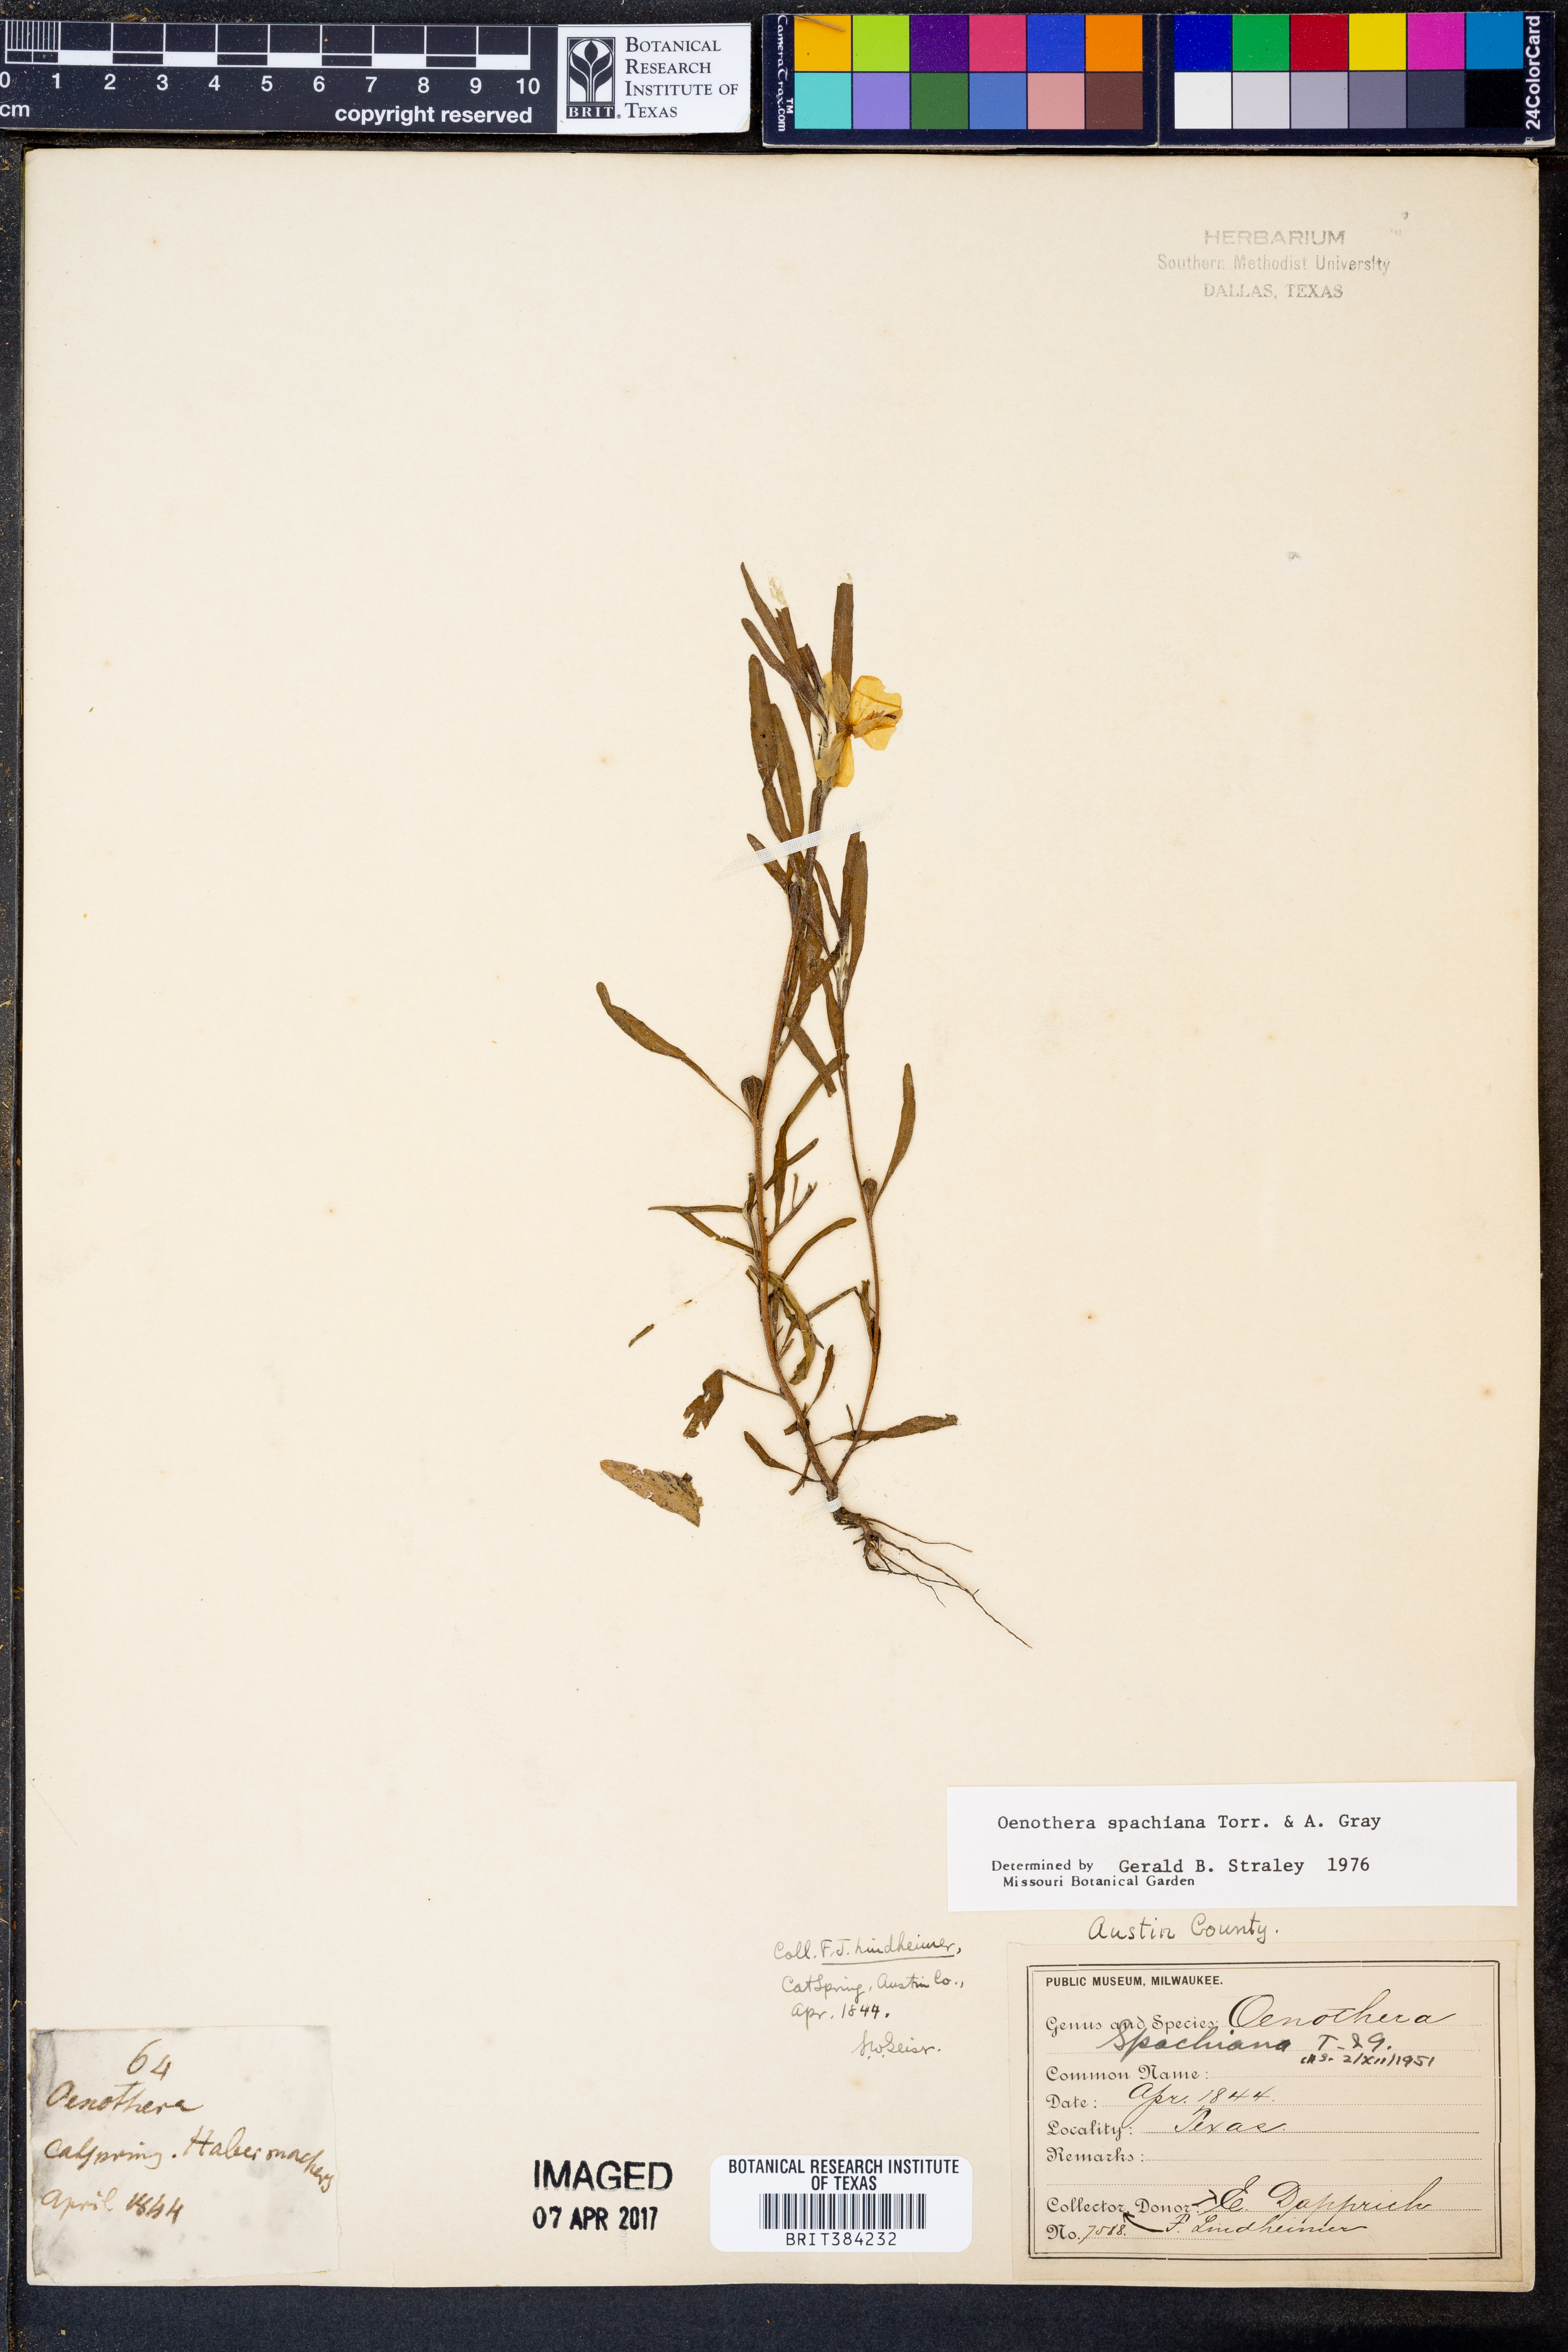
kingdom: Plantae
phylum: Tracheophyta
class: Magnoliopsida
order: Myrtales
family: Onagraceae
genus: Oenothera
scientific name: Oenothera spachiana
